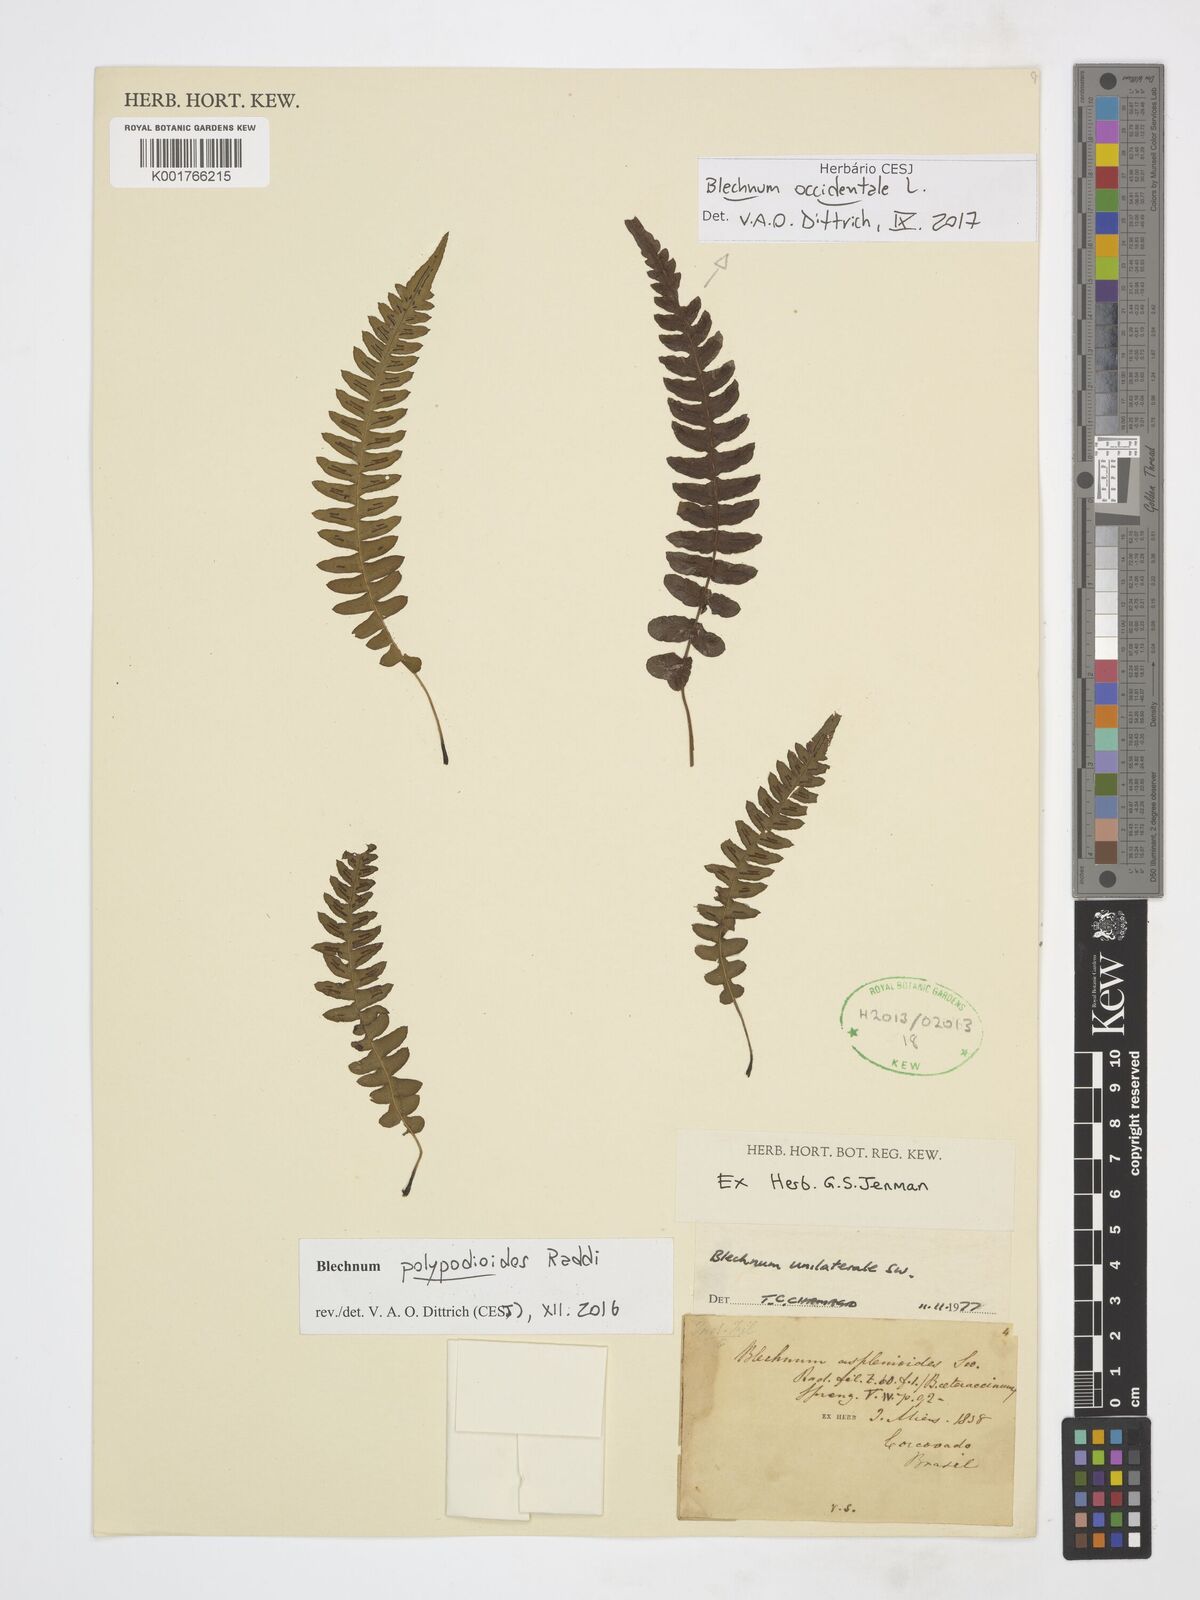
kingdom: Plantae
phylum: Tracheophyta
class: Polypodiopsida
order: Polypodiales
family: Blechnaceae
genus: Blechnum
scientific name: Blechnum occidentale
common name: Hammock fern
